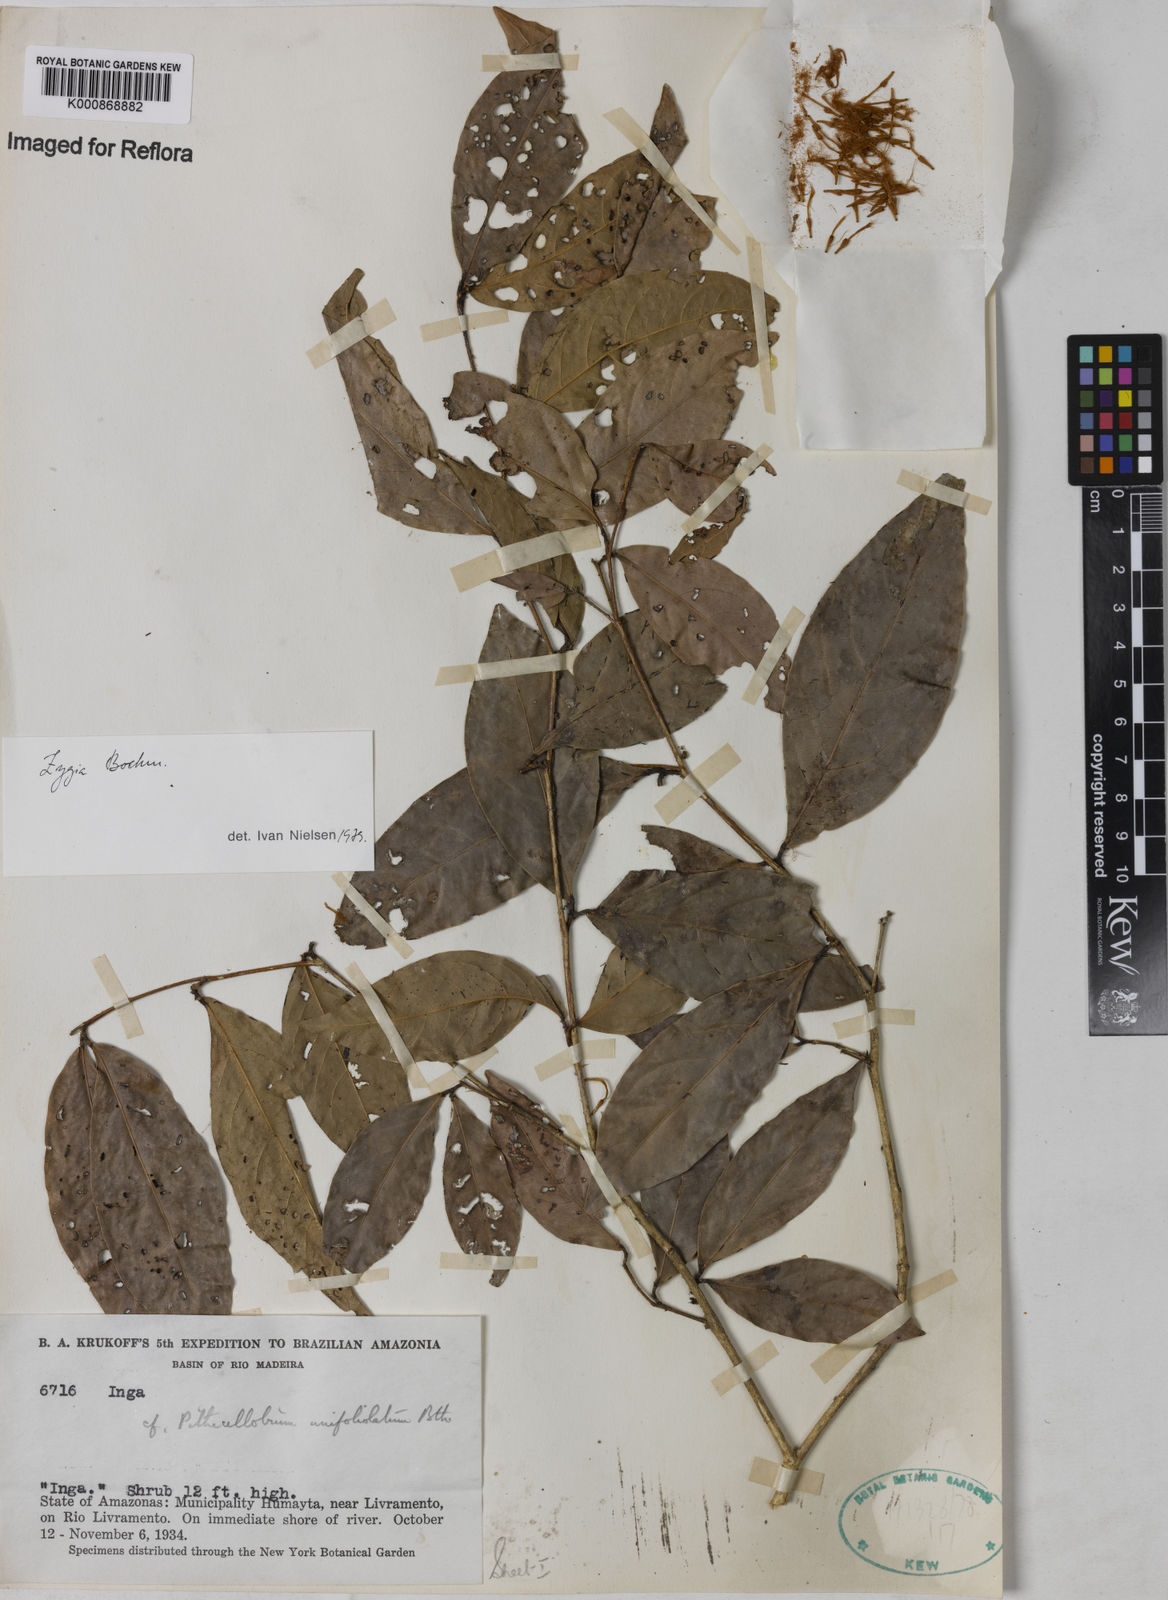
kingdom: Plantae
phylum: Tracheophyta
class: Magnoliopsida
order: Fabales
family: Fabaceae
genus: Zygia
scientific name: Zygia unifoliolata
